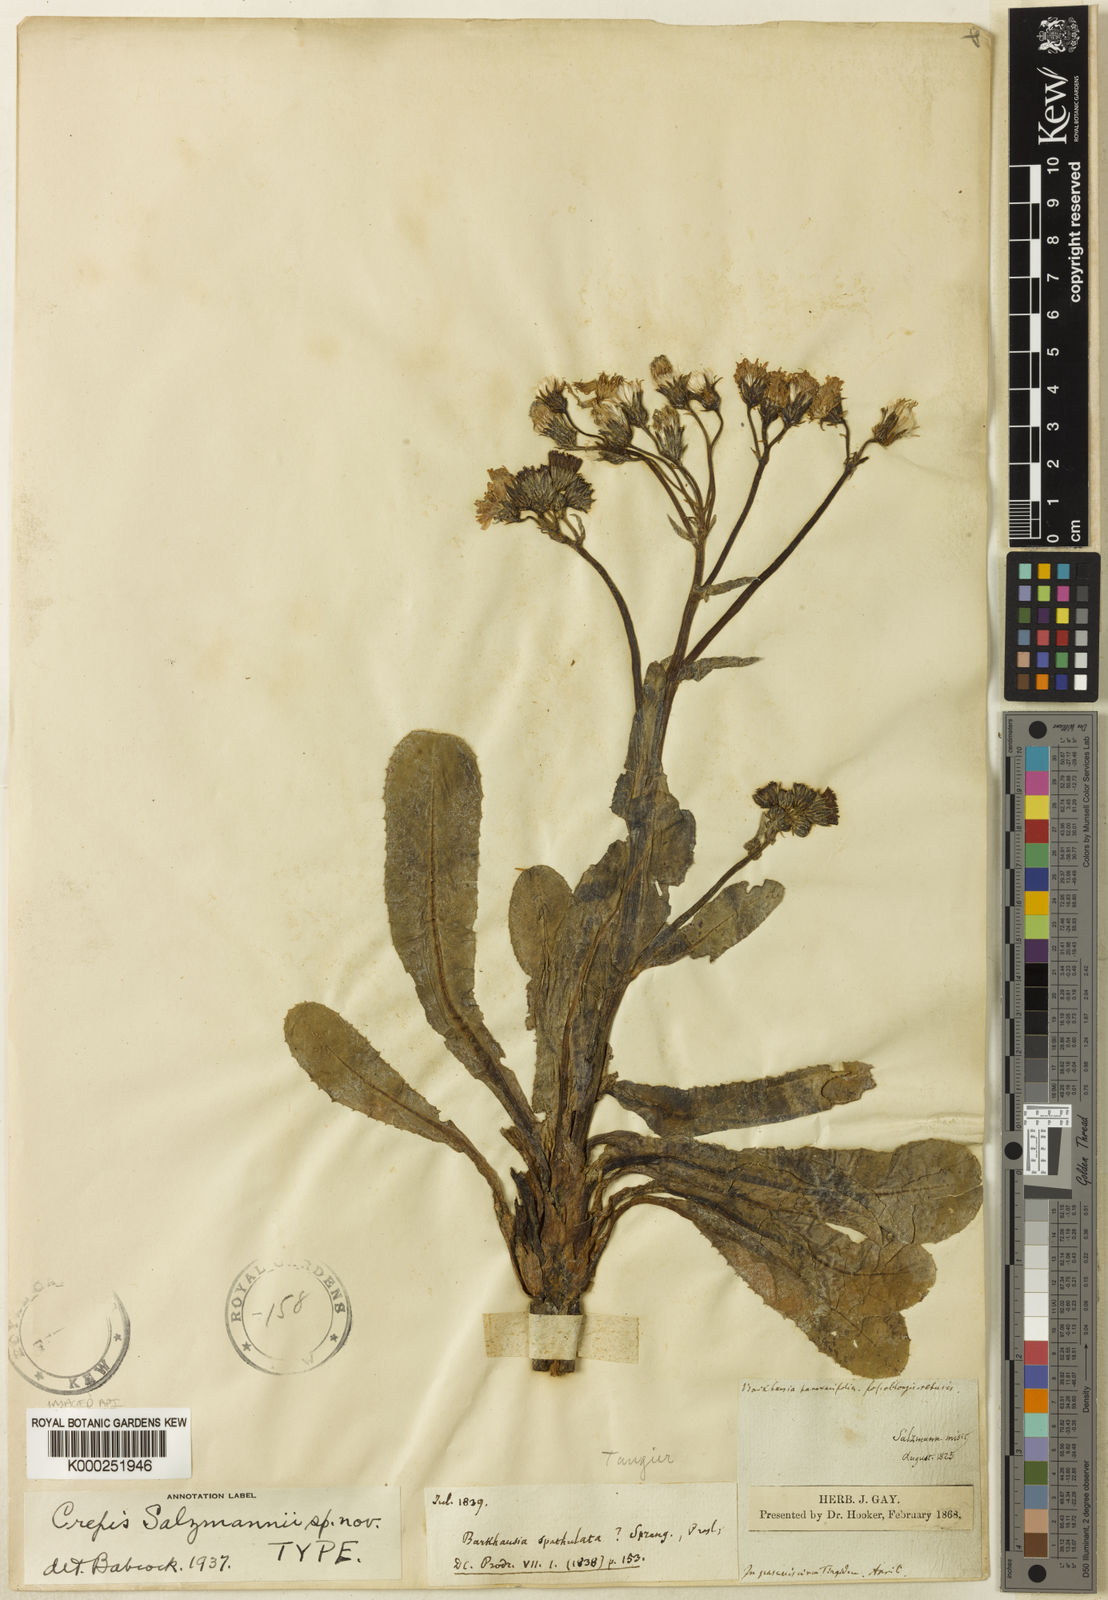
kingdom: Plantae
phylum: Tracheophyta
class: Magnoliopsida
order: Asterales
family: Asteraceae
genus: Crepis
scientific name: Crepis salzmannii
